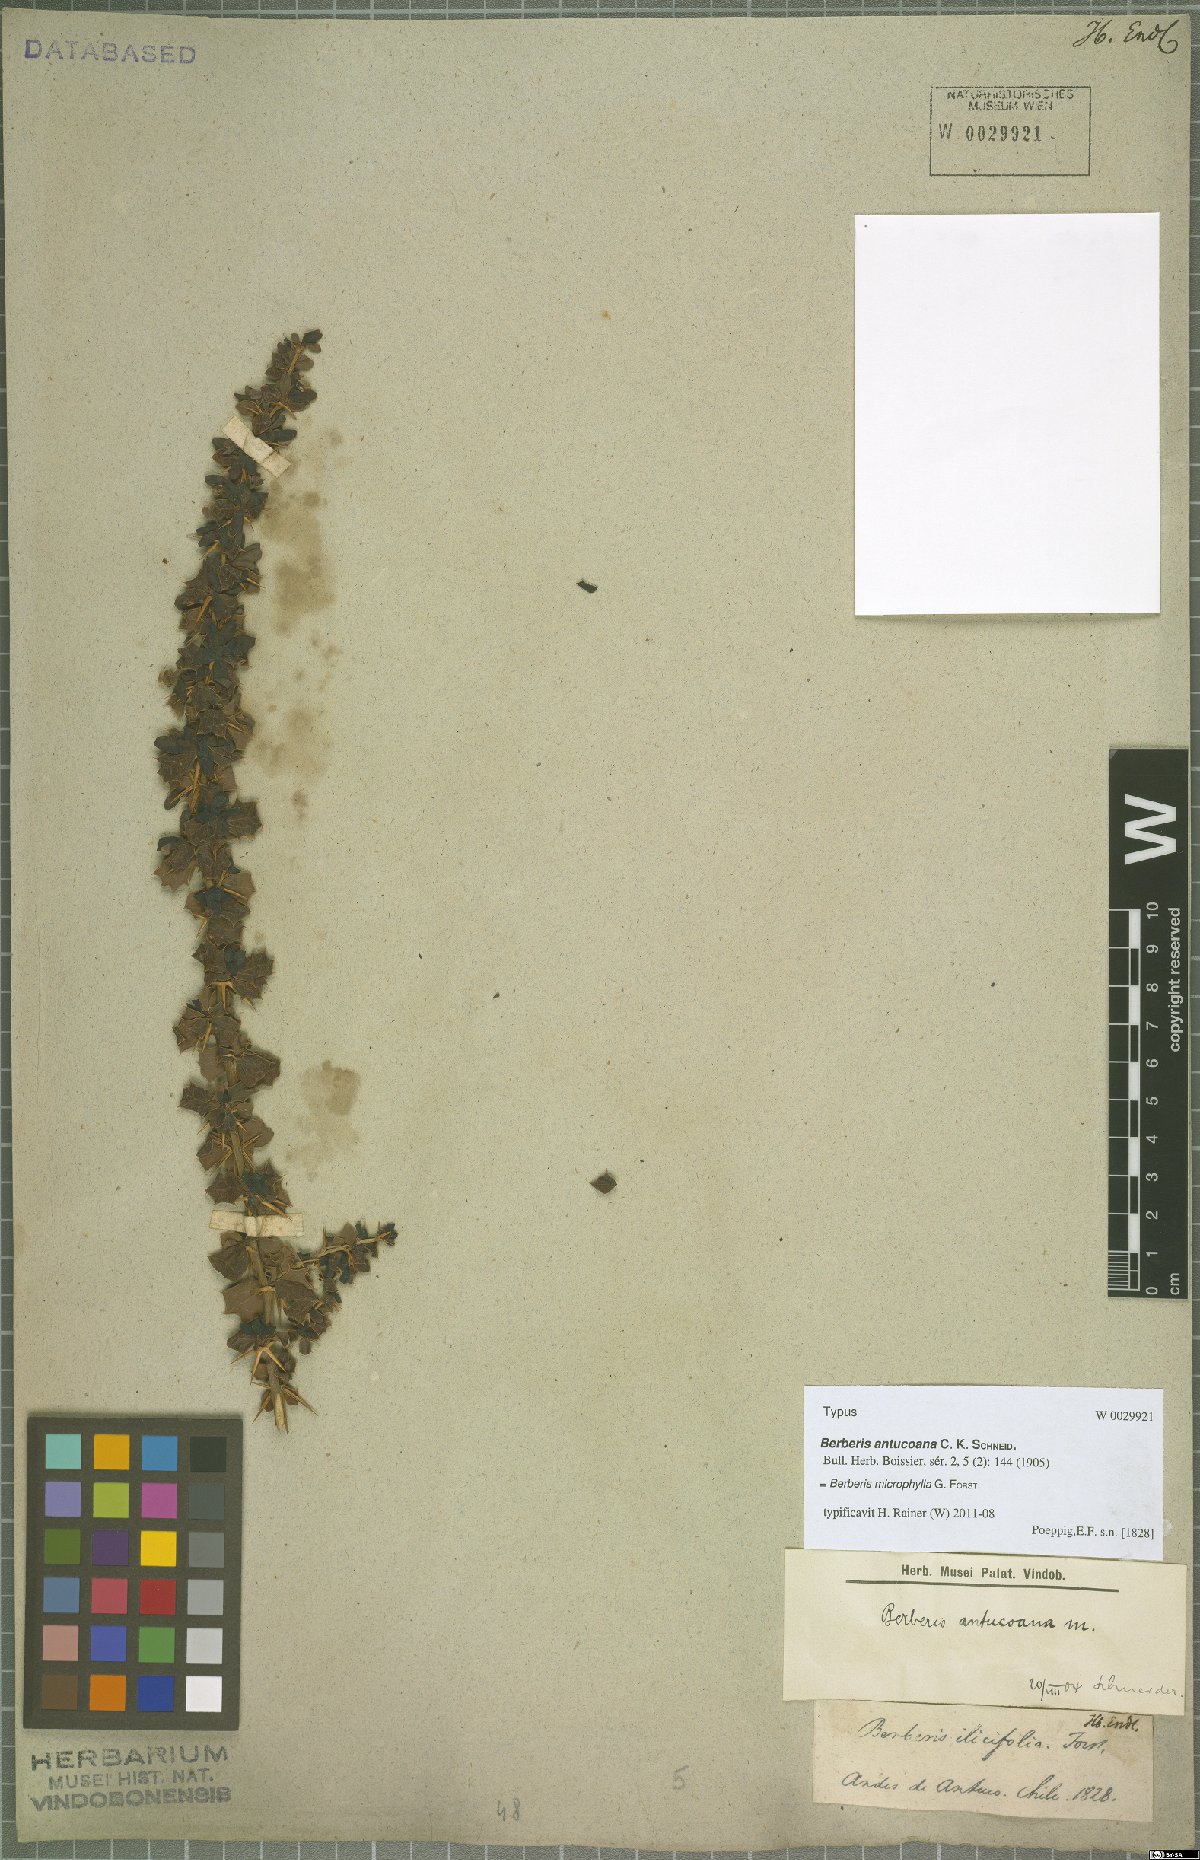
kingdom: Plantae
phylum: Tracheophyta
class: Magnoliopsida
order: Ranunculales
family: Berberidaceae
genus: Berberis
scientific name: Berberis microphylla
